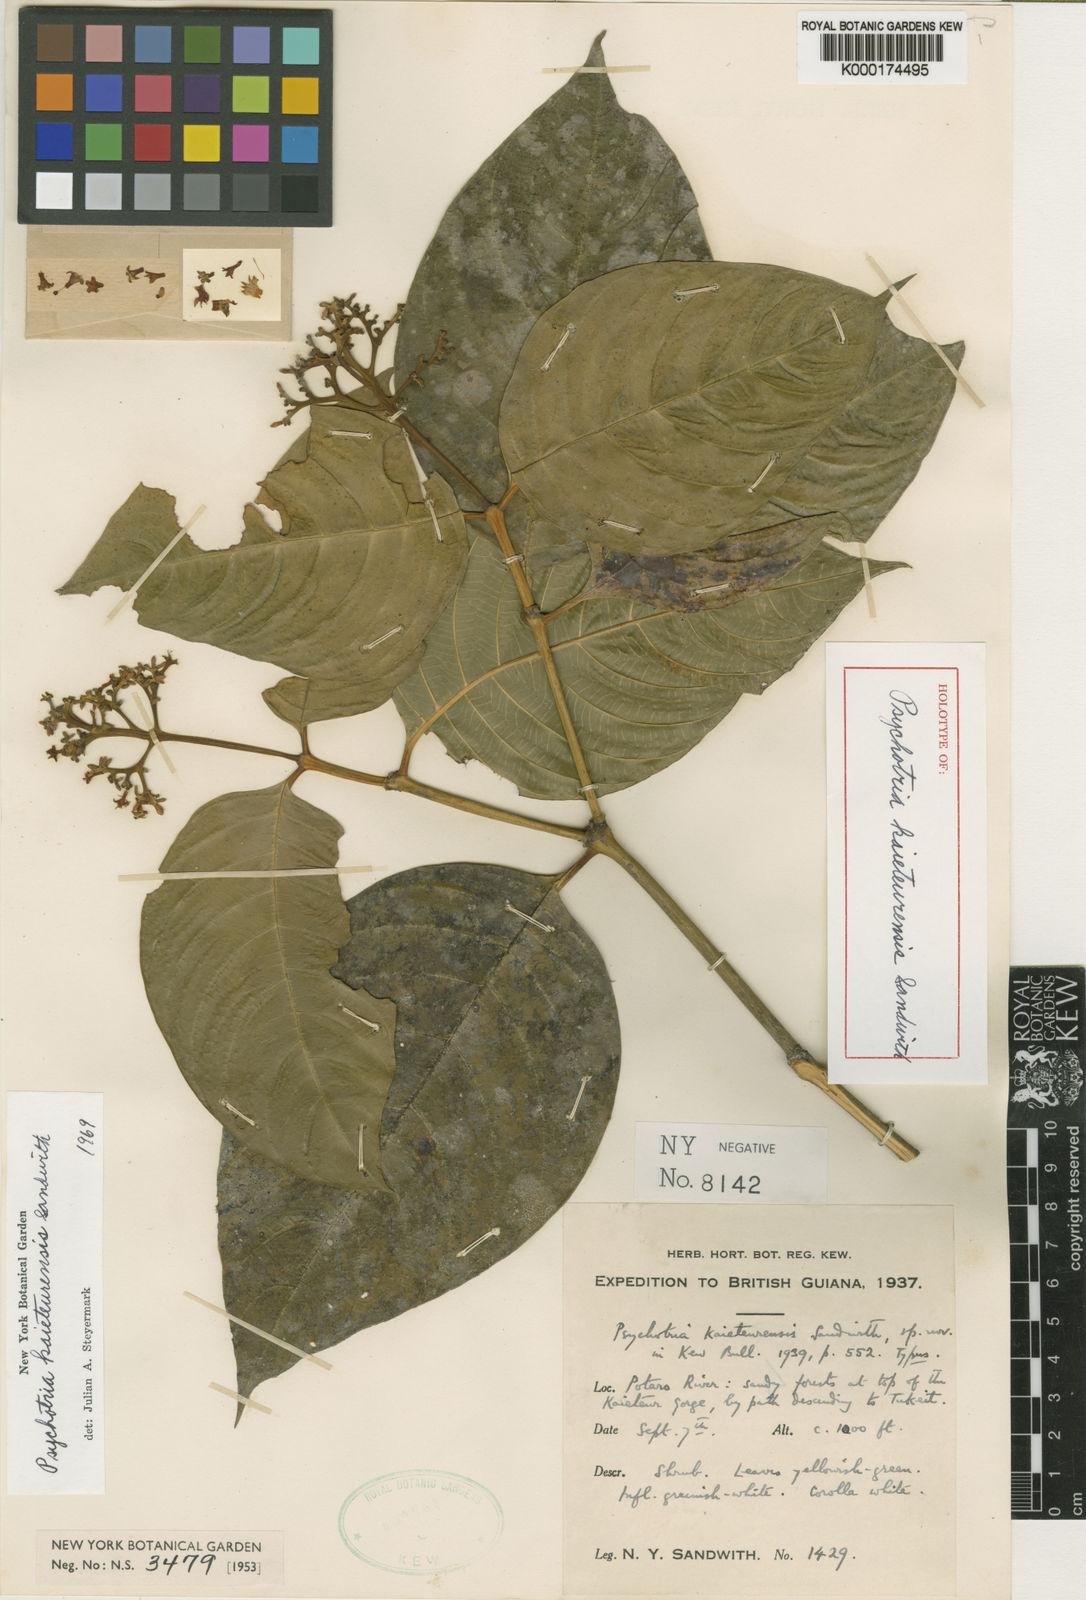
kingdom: Plantae
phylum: Tracheophyta
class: Magnoliopsida
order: Gentianales
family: Rubiaceae
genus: Palicourea
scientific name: Palicourea sandwithii
